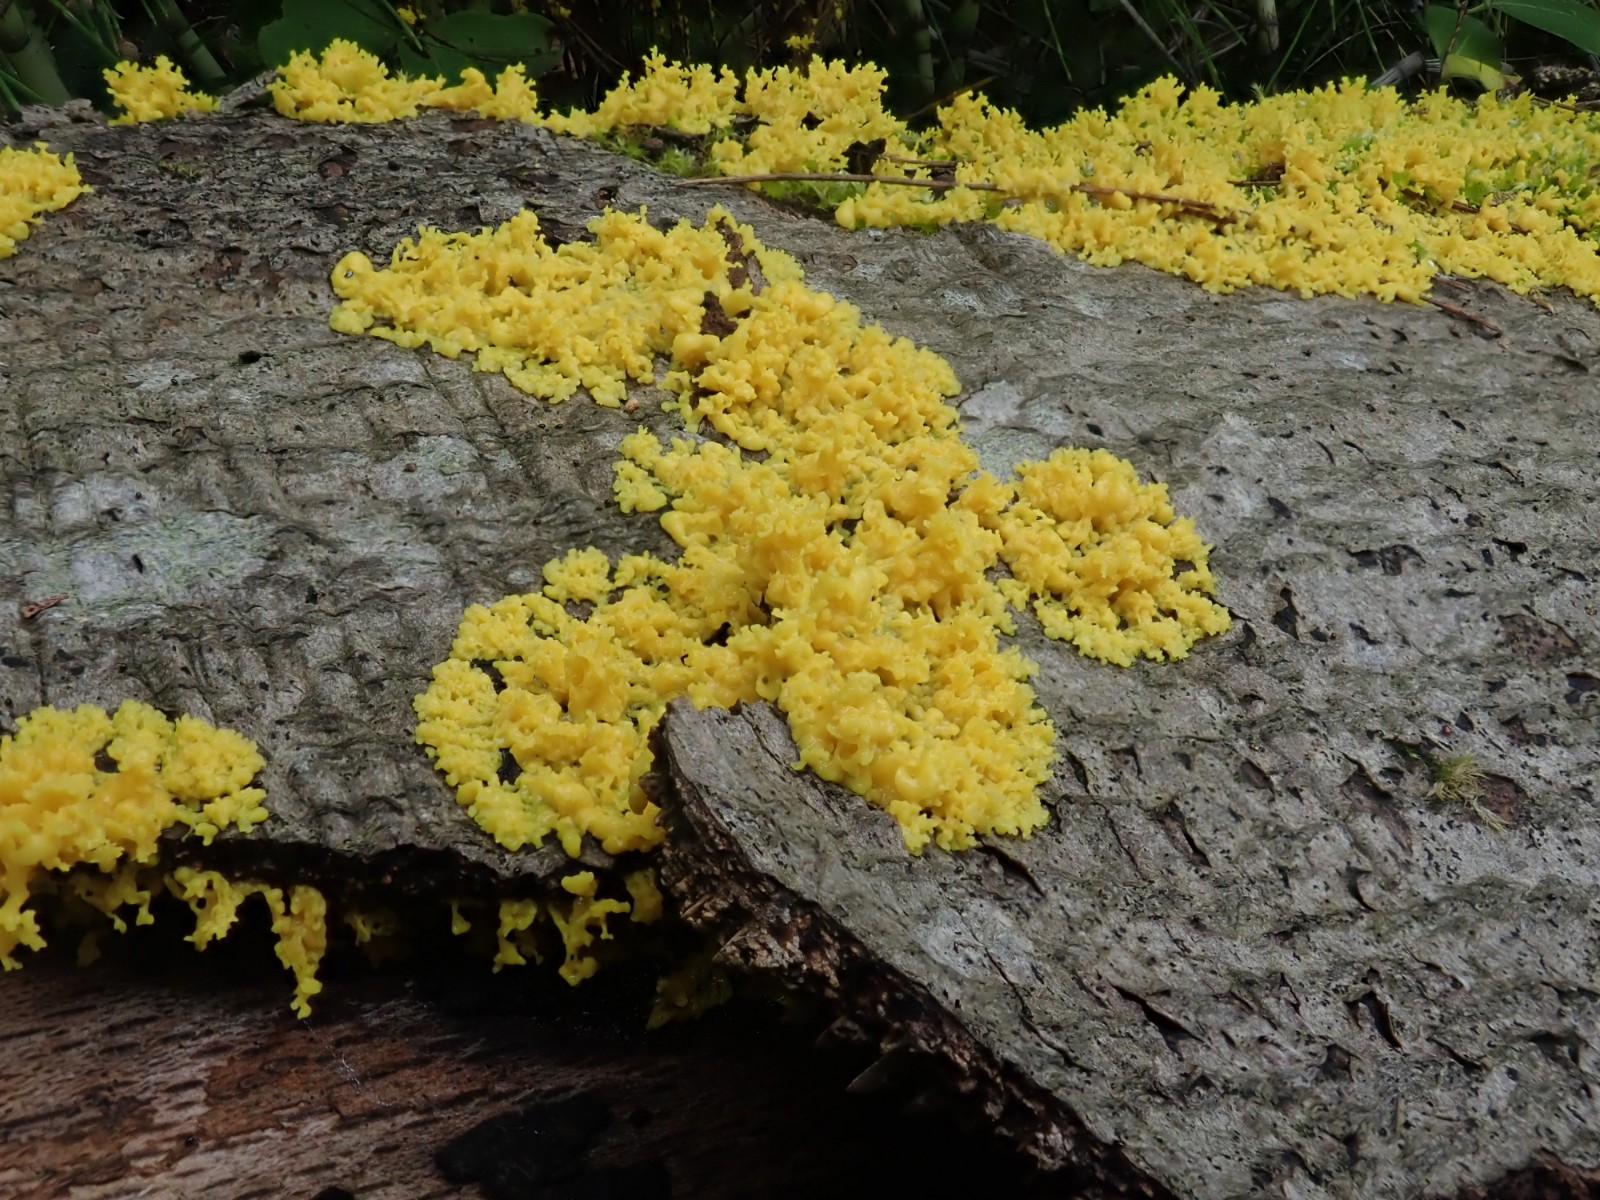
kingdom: Protozoa
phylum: Mycetozoa
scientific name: Mycetozoa
